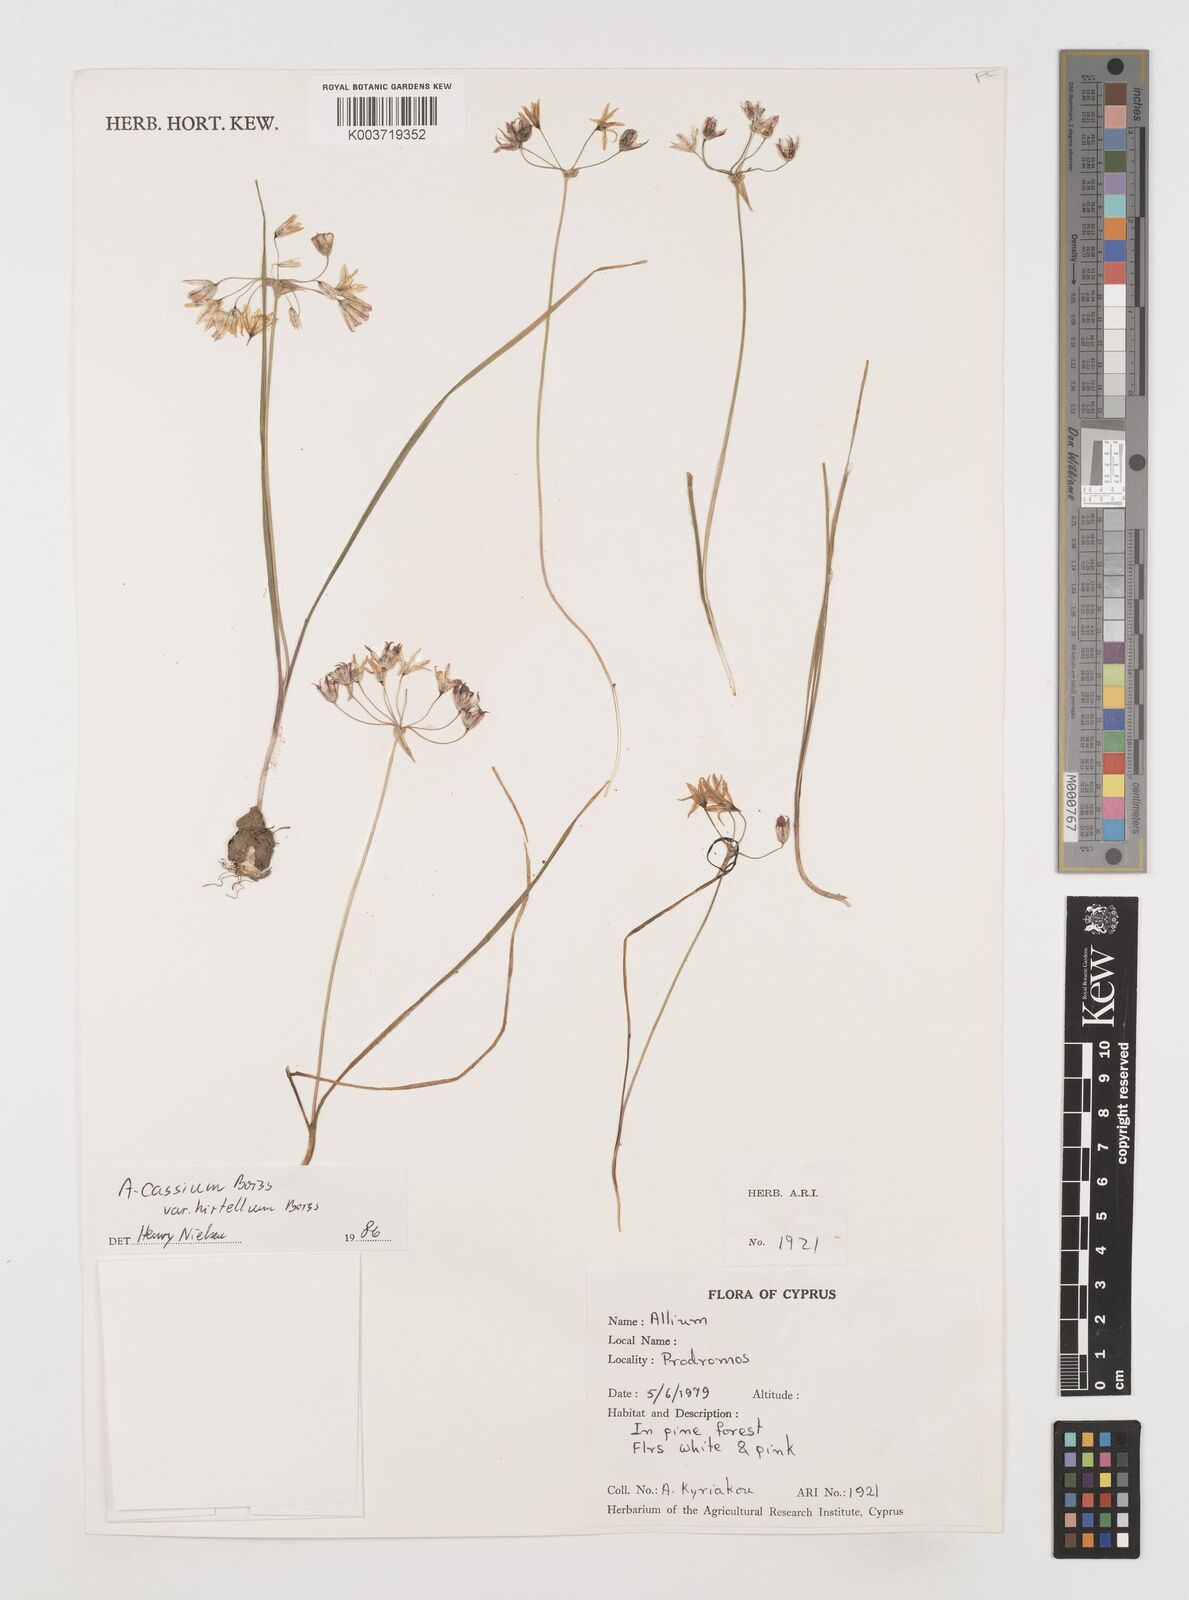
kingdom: Plantae
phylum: Tracheophyta
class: Liliopsida
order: Asparagales
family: Amaryllidaceae
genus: Allium
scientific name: Allium cassium
